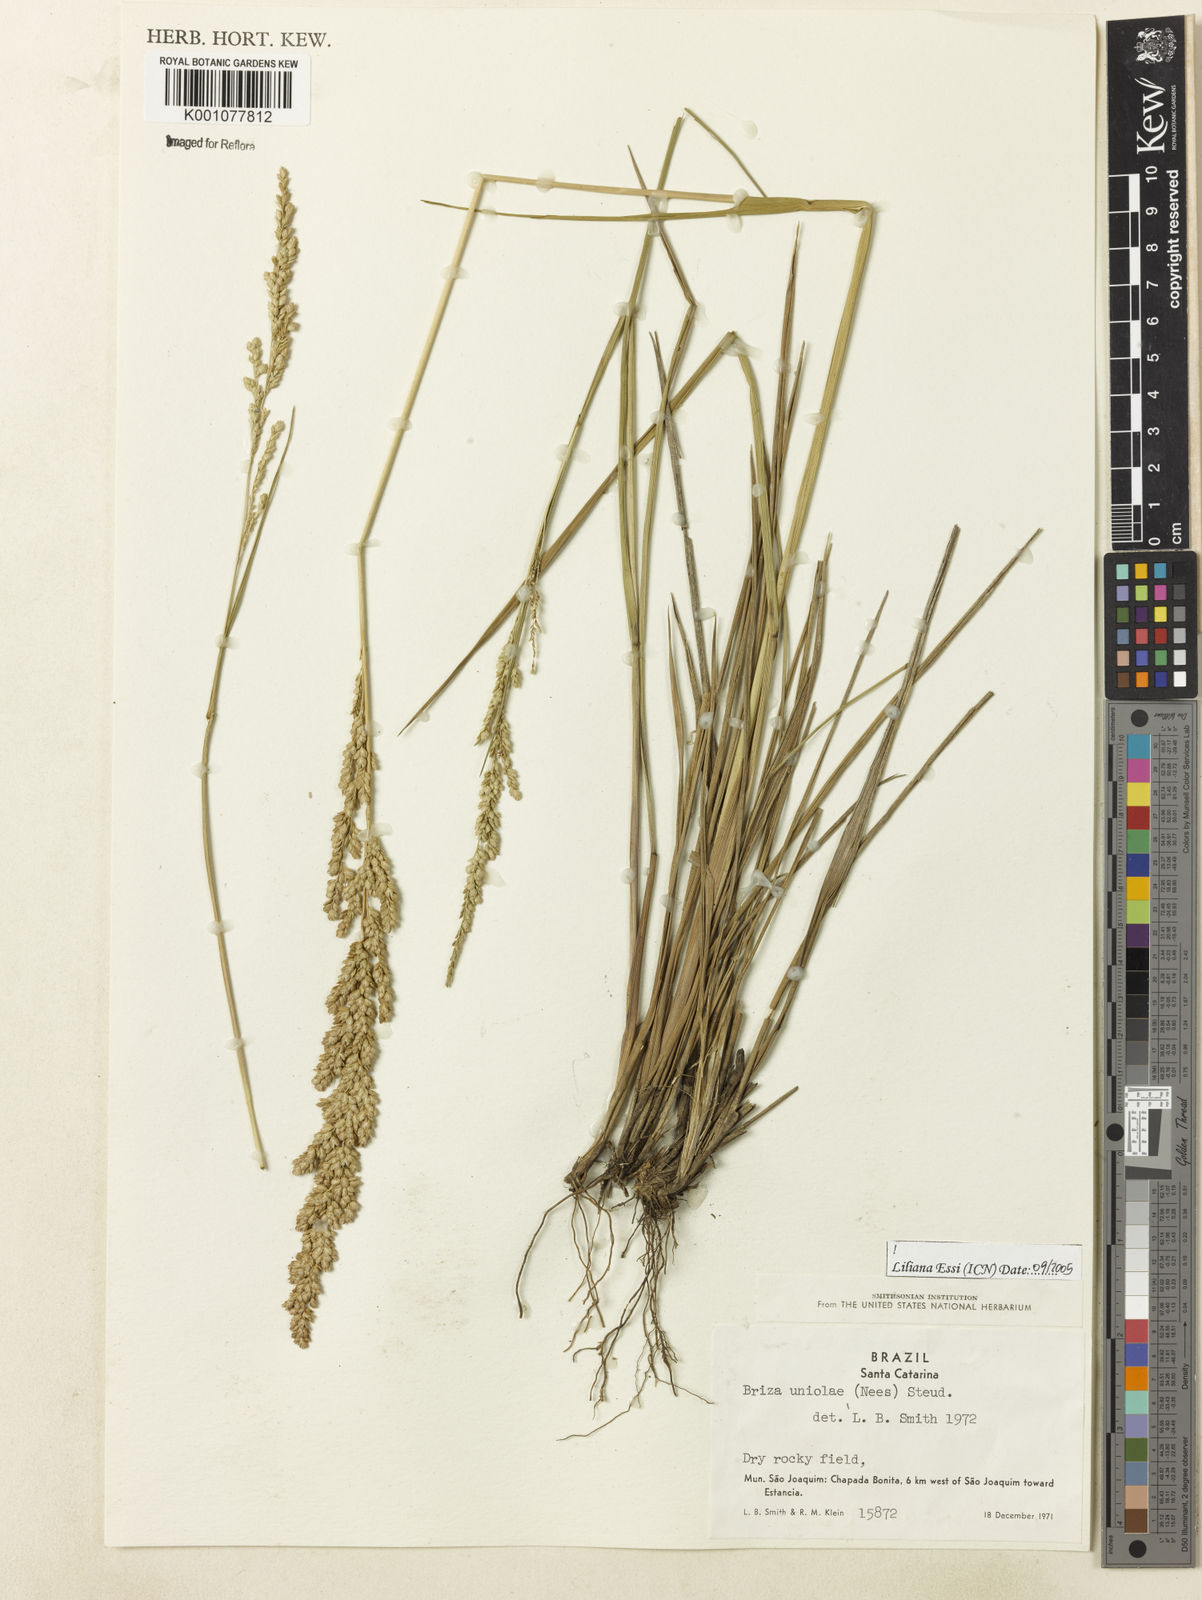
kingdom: Plantae
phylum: Tracheophyta
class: Liliopsida
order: Poales
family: Poaceae
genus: Poidium
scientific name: Poidium uniolae
